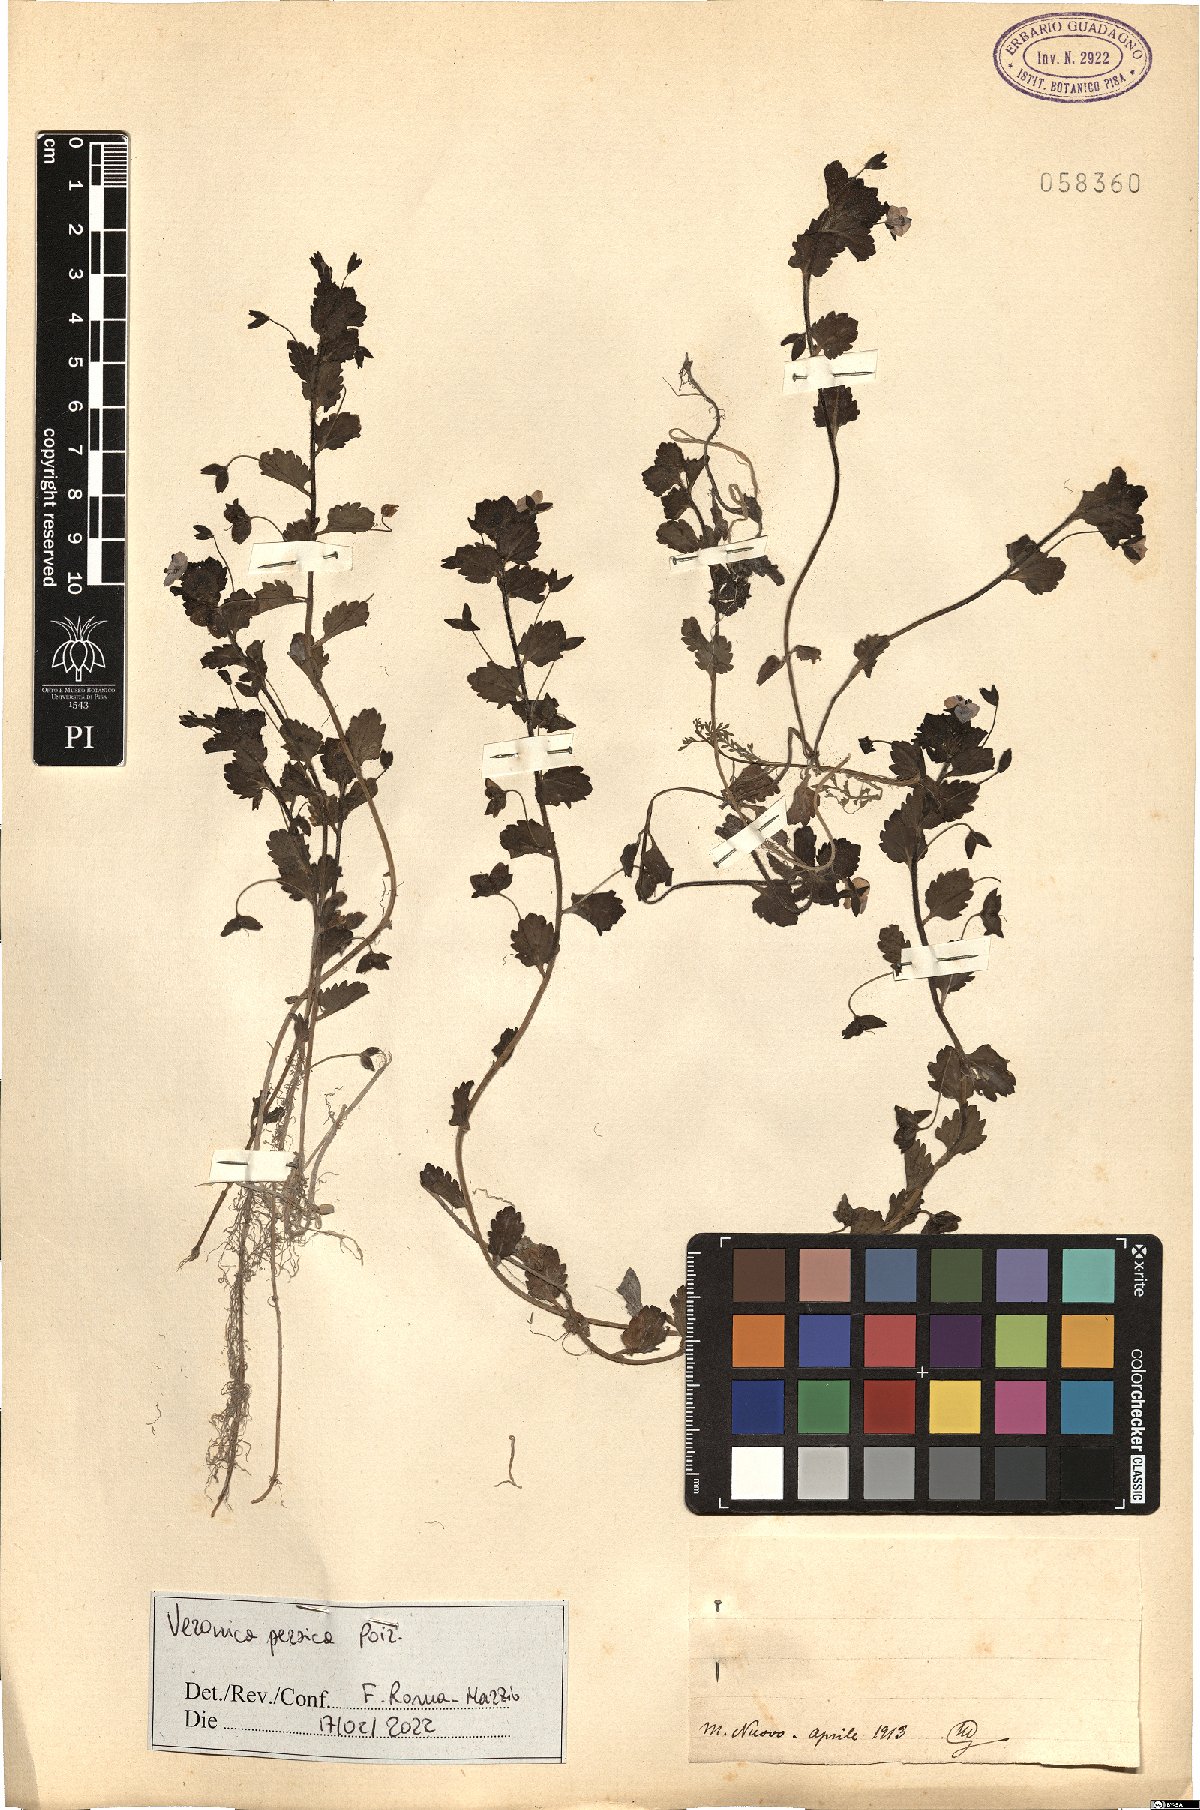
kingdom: Plantae
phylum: Tracheophyta
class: Magnoliopsida
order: Lamiales
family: Plantaginaceae
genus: Veronica
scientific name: Veronica persica
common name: Common field-speedwell
